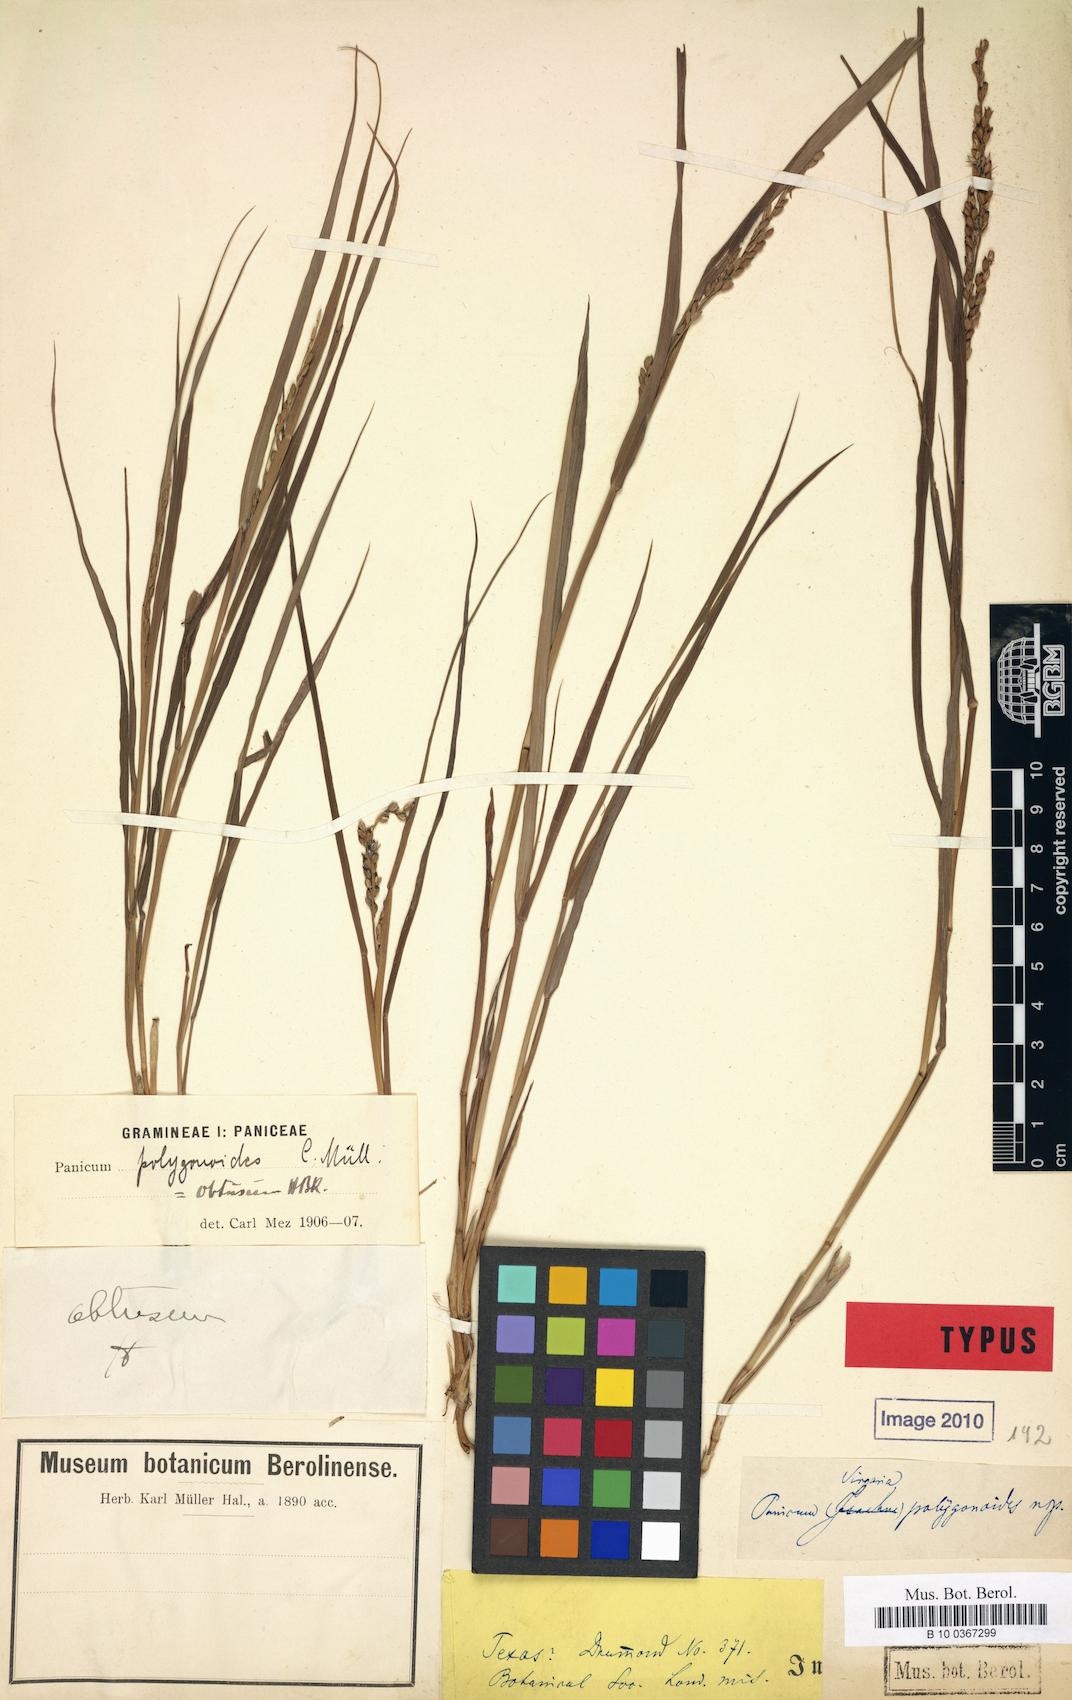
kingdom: Plantae
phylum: Tracheophyta
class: Liliopsida
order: Poales
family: Poaceae
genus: Hopia
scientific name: Hopia obtusa
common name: Vine-mesquite
